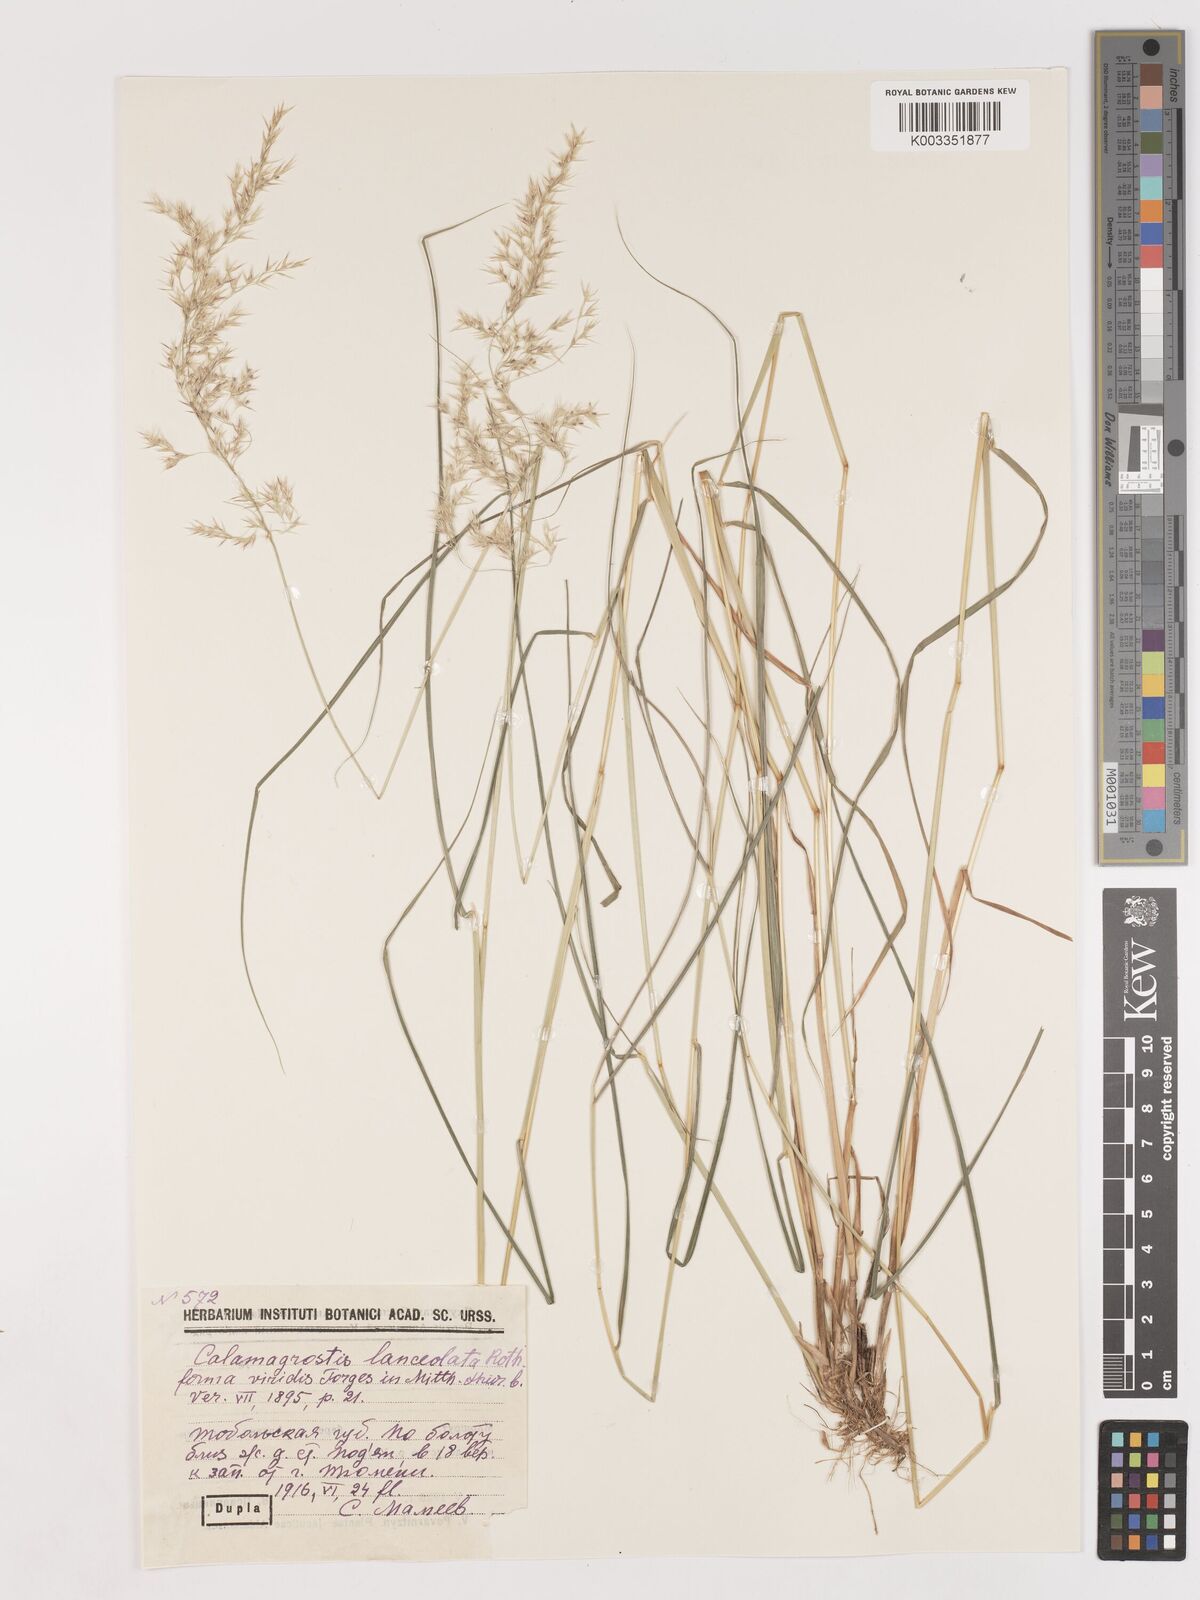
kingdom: Plantae
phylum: Tracheophyta
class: Liliopsida
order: Poales
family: Poaceae
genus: Calamagrostis
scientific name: Calamagrostis canescens
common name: Purple small-reed
